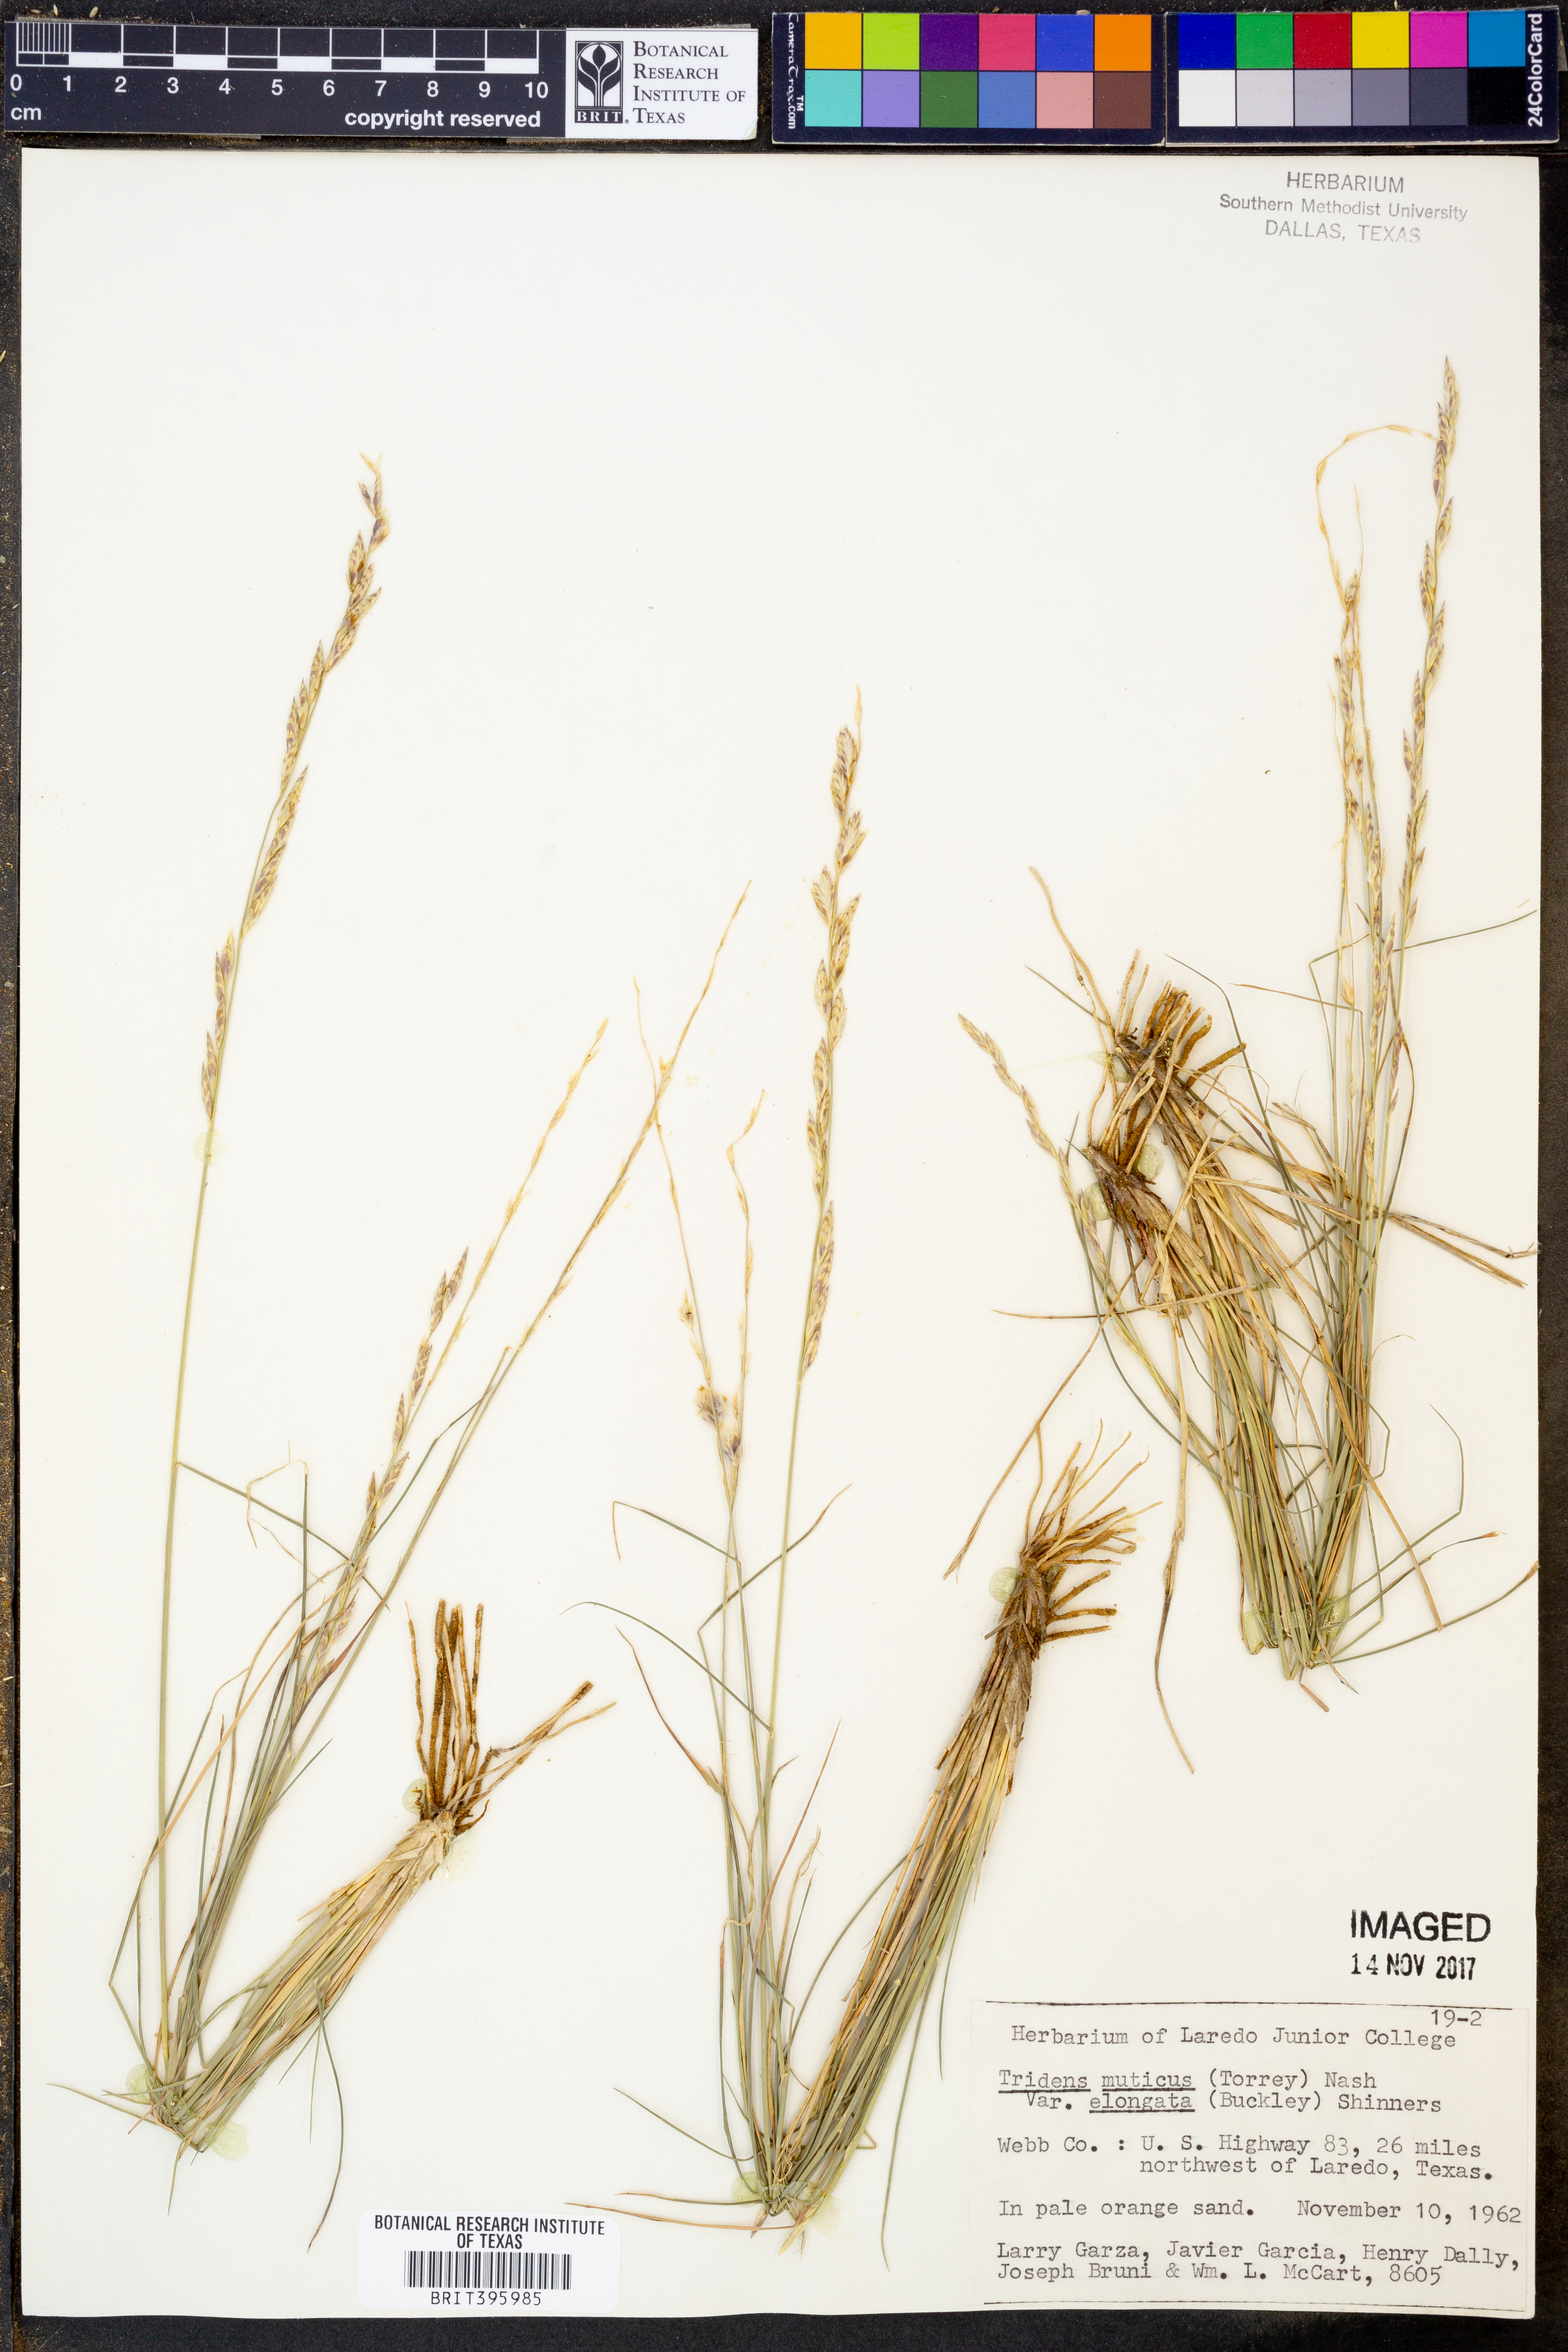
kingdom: Plantae
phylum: Tracheophyta
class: Liliopsida
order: Poales
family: Poaceae
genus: Tridentopsis
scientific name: Tridentopsis mutica
